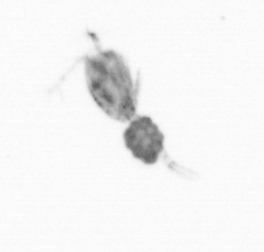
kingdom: Animalia
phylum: Arthropoda
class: Copepoda
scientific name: Copepoda
